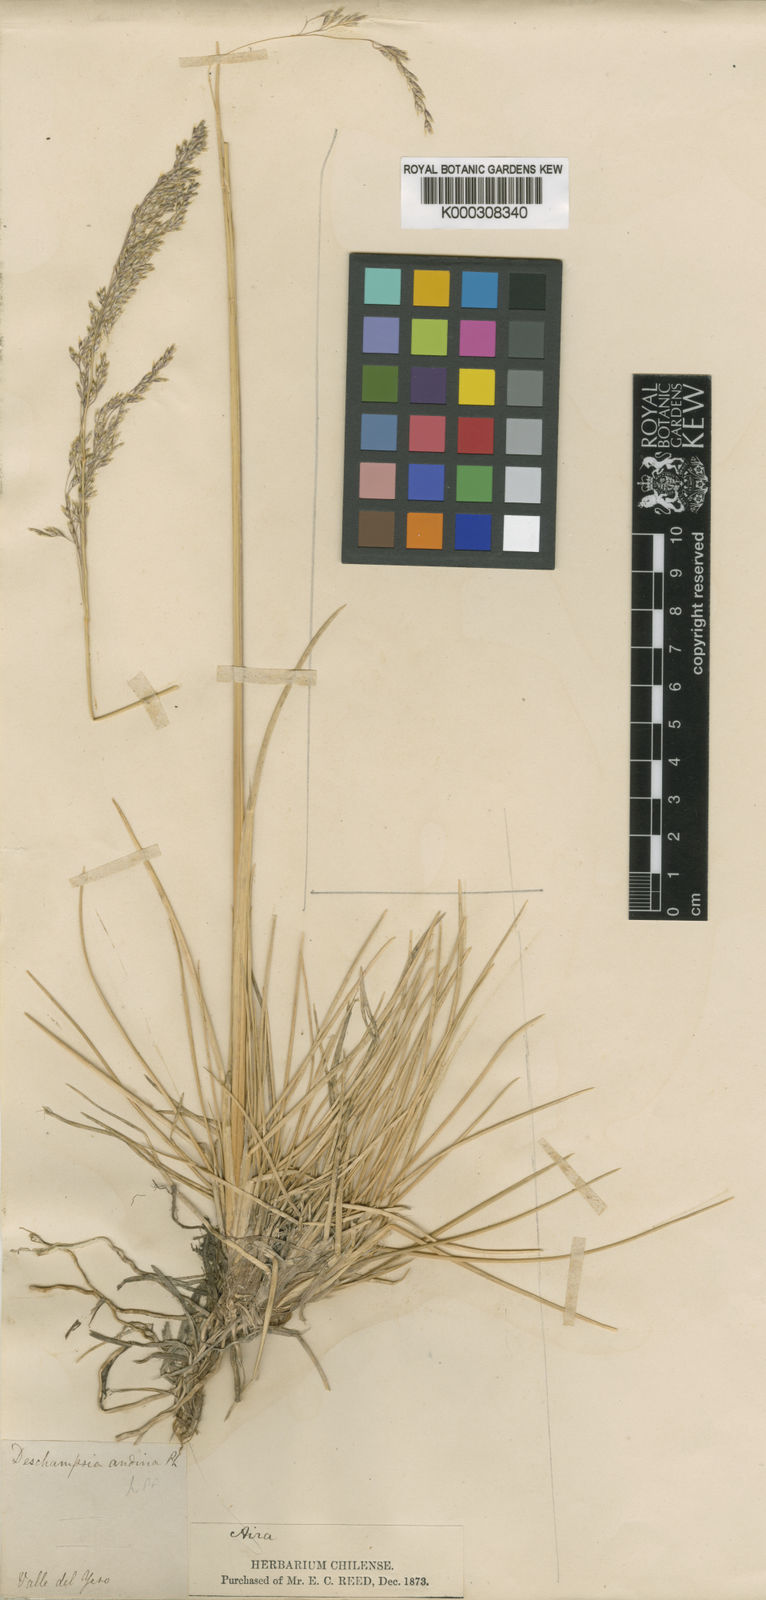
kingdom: Plantae
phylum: Tracheophyta
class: Liliopsida
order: Poales
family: Poaceae
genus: Deschampsia
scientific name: Deschampsia cespitosa
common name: Tufted hair-grass
